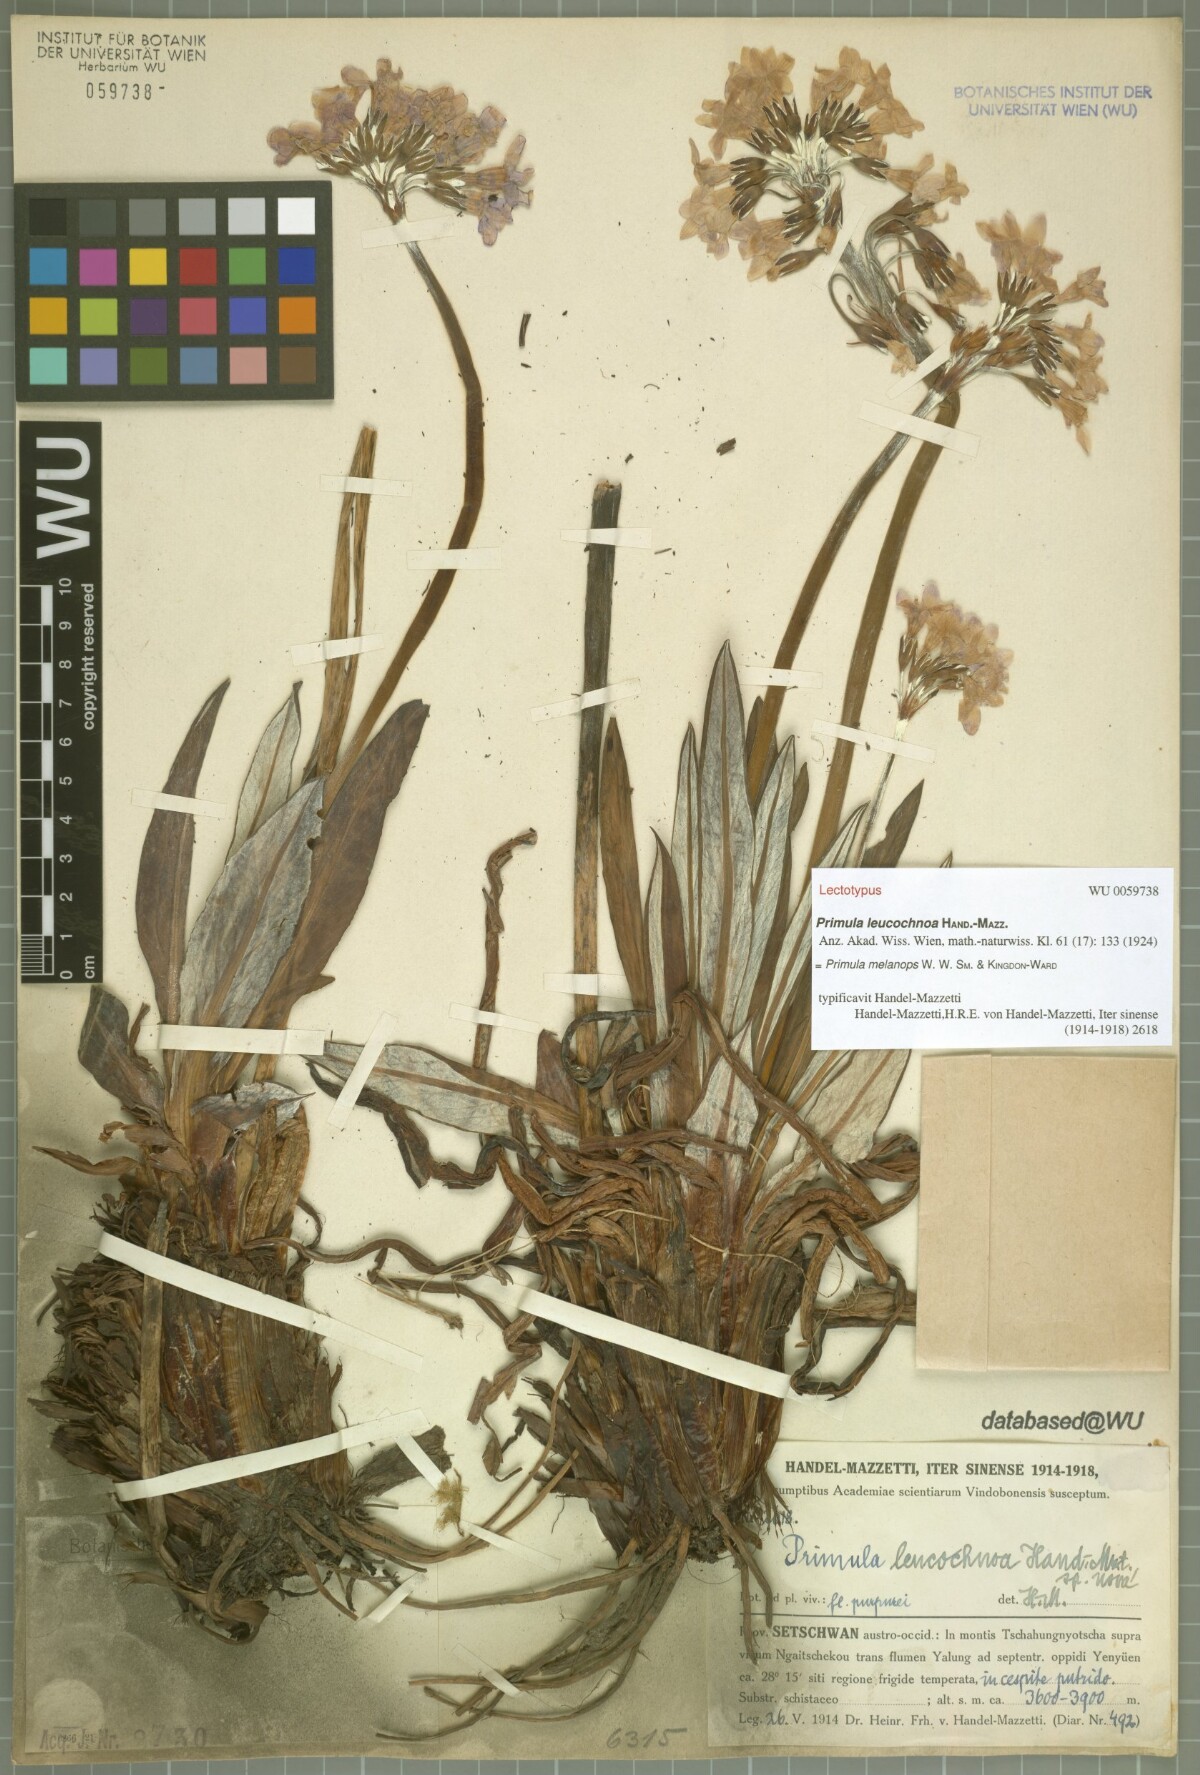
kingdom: Plantae
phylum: Tracheophyta
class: Magnoliopsida
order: Ericales
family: Primulaceae
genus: Primula
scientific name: Primula chionantha
